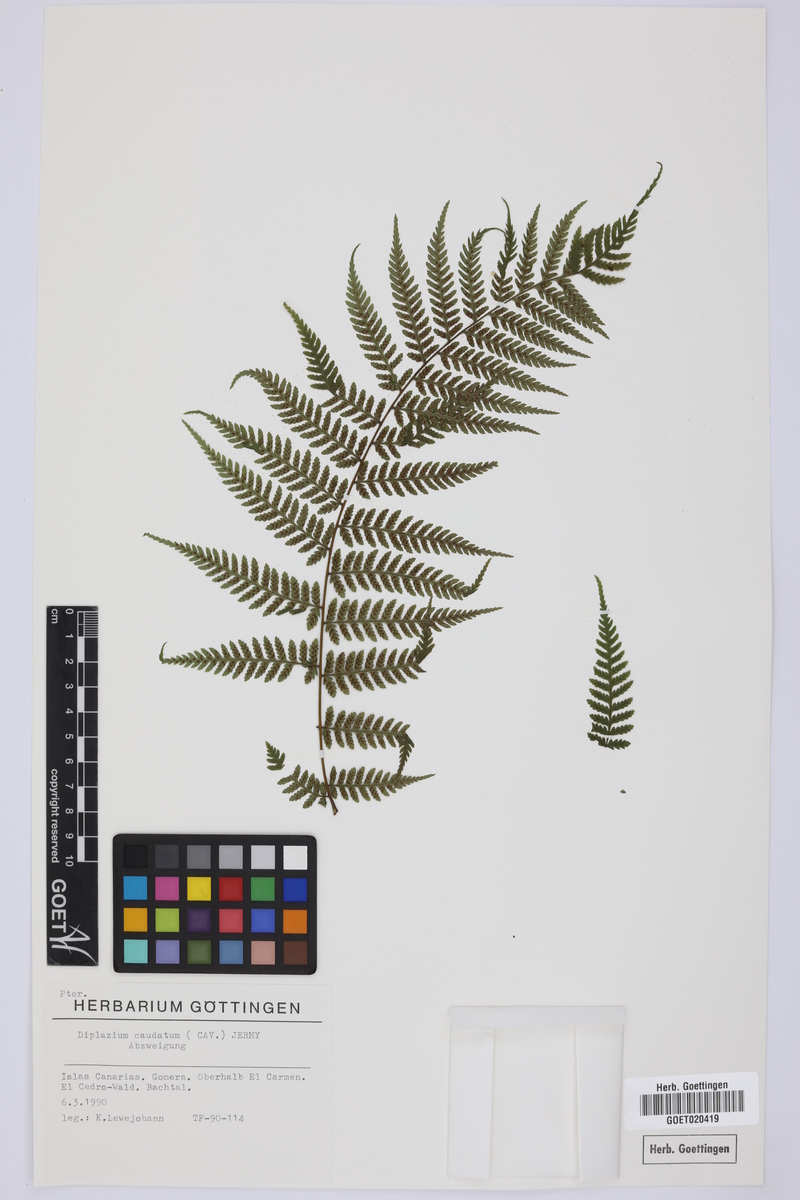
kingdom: Plantae
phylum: Tracheophyta
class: Polypodiopsida
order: Polypodiales
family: Athyriaceae
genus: Diplazium
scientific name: Diplazium caudatum
